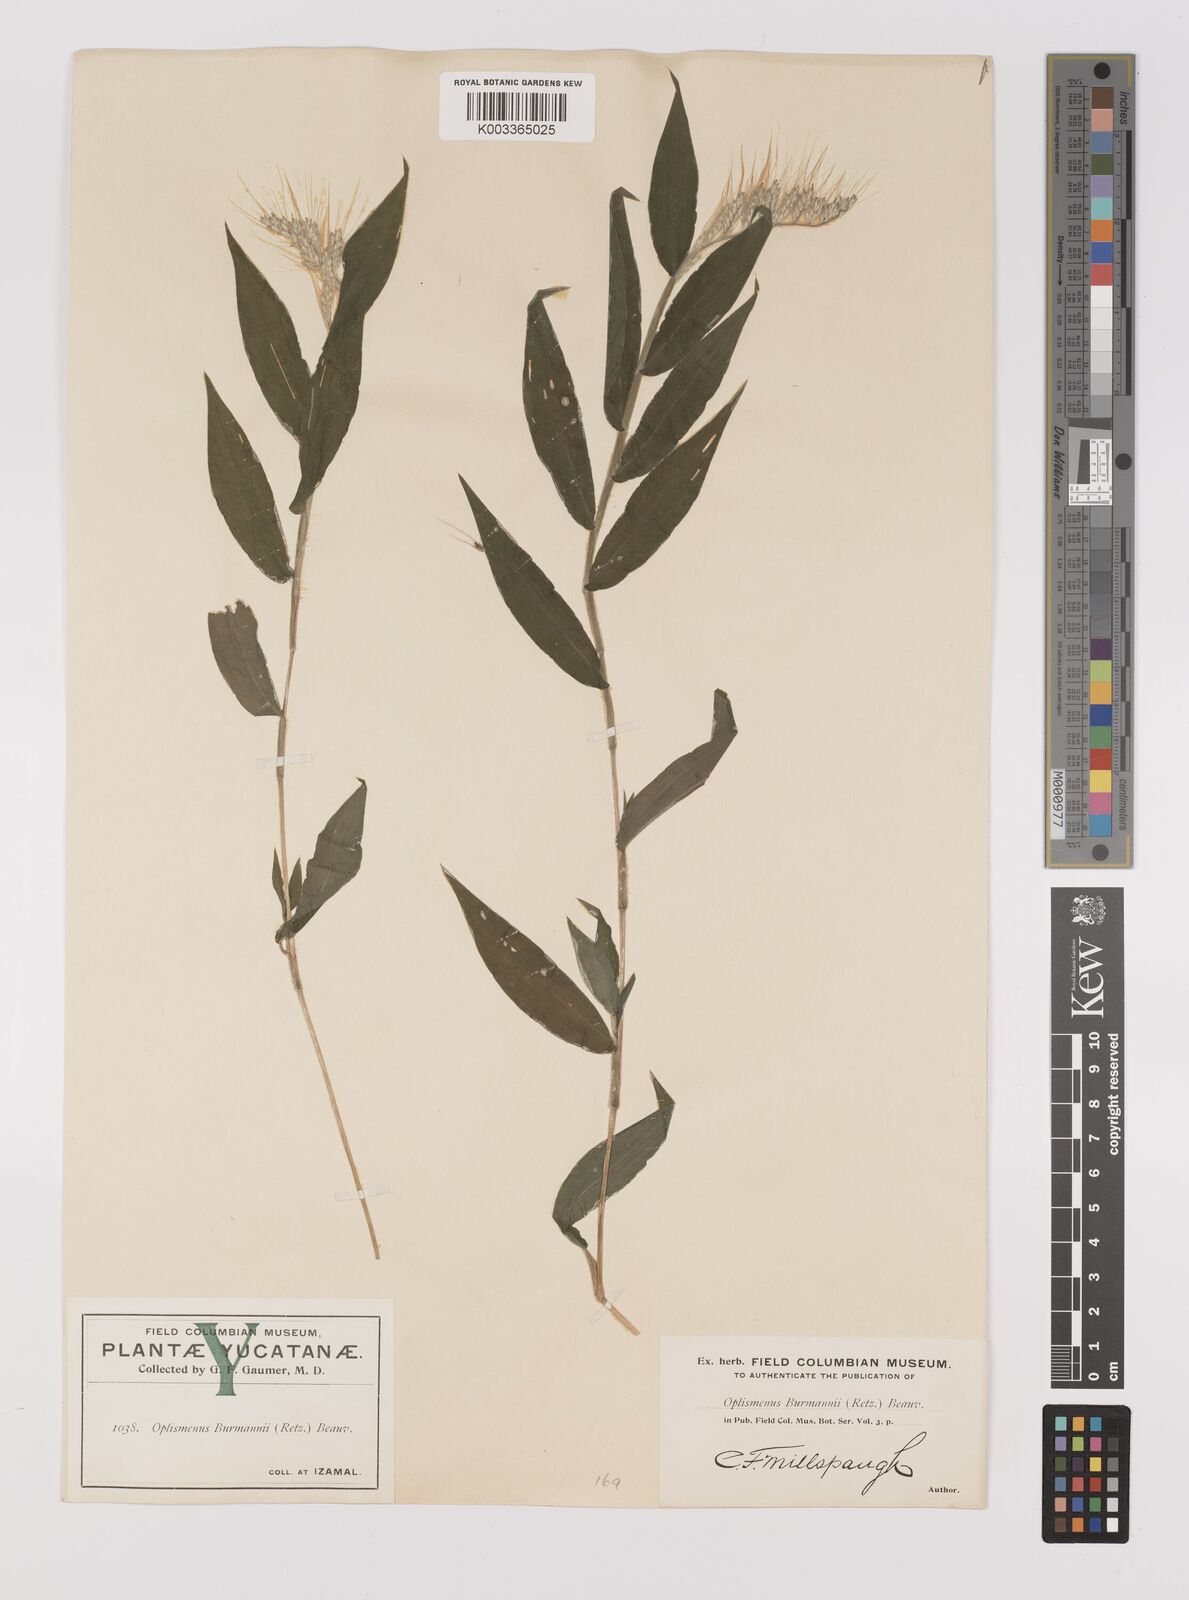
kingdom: Plantae
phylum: Tracheophyta
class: Liliopsida
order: Poales
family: Poaceae
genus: Oplismenus
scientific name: Oplismenus burmanni
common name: Burmann's basketgrass
